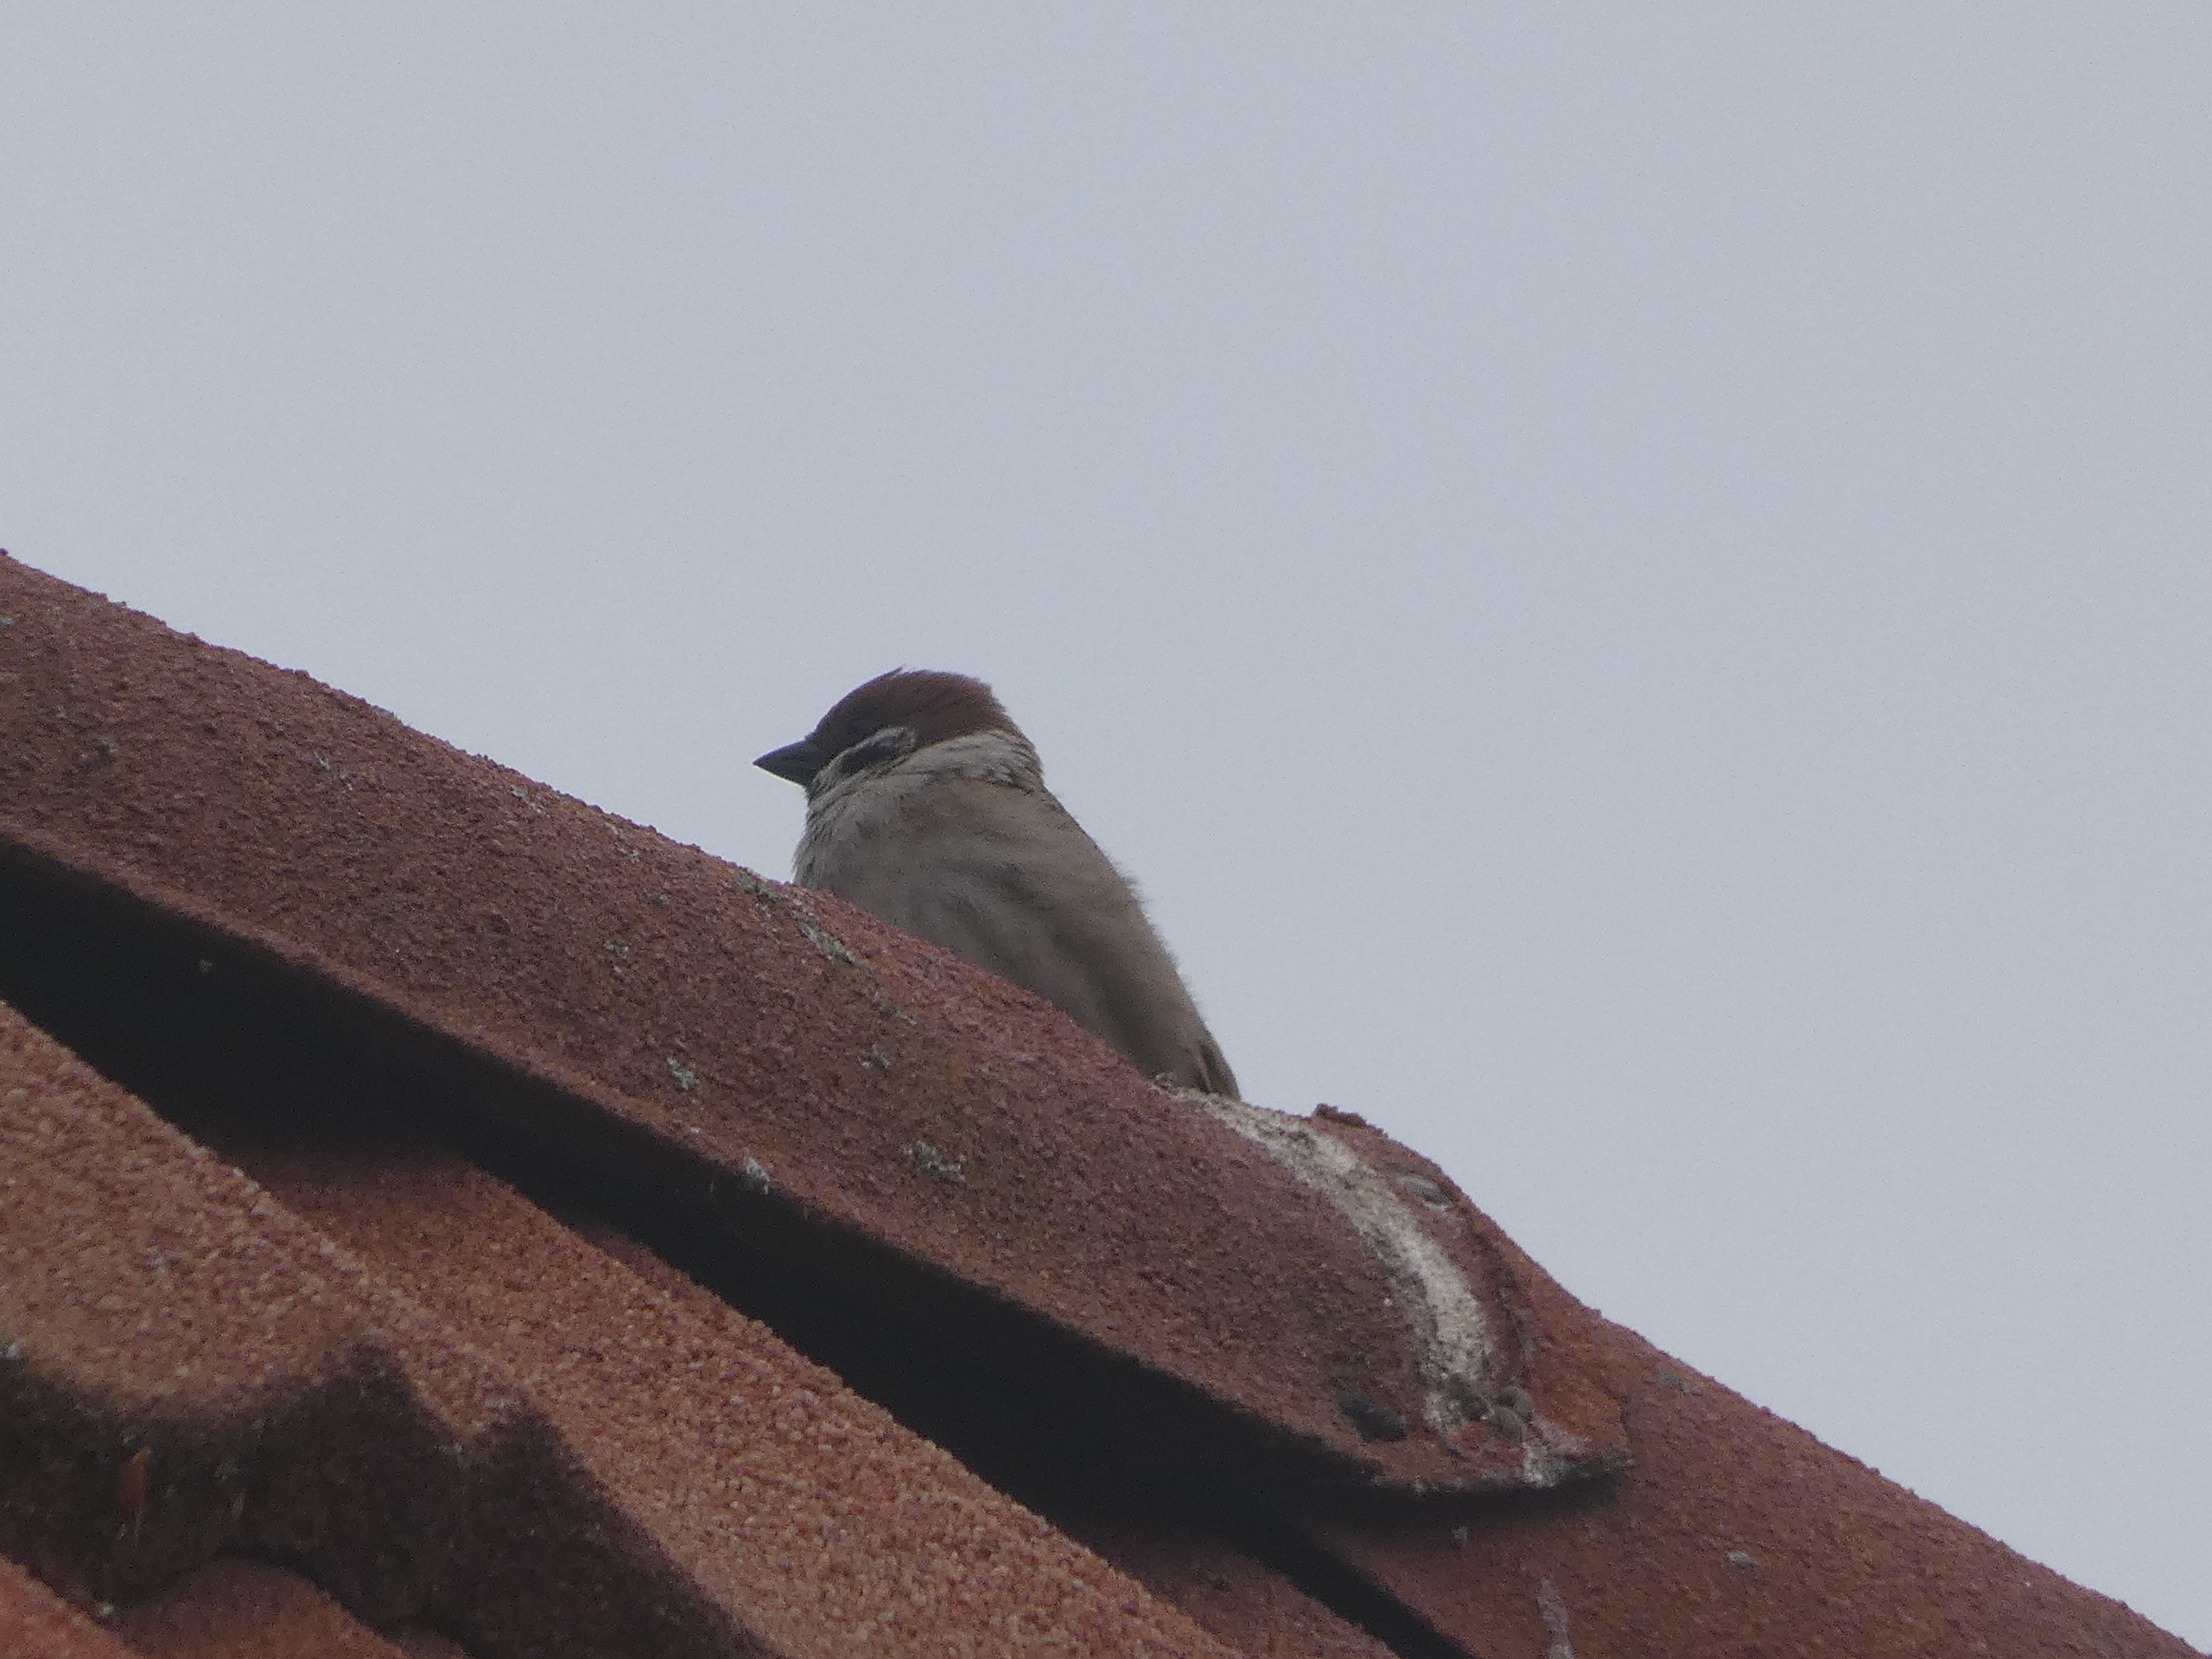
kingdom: Animalia
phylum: Chordata
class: Aves
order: Passeriformes
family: Passeridae
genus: Passer
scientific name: Passer montanus
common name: Skovspurv
